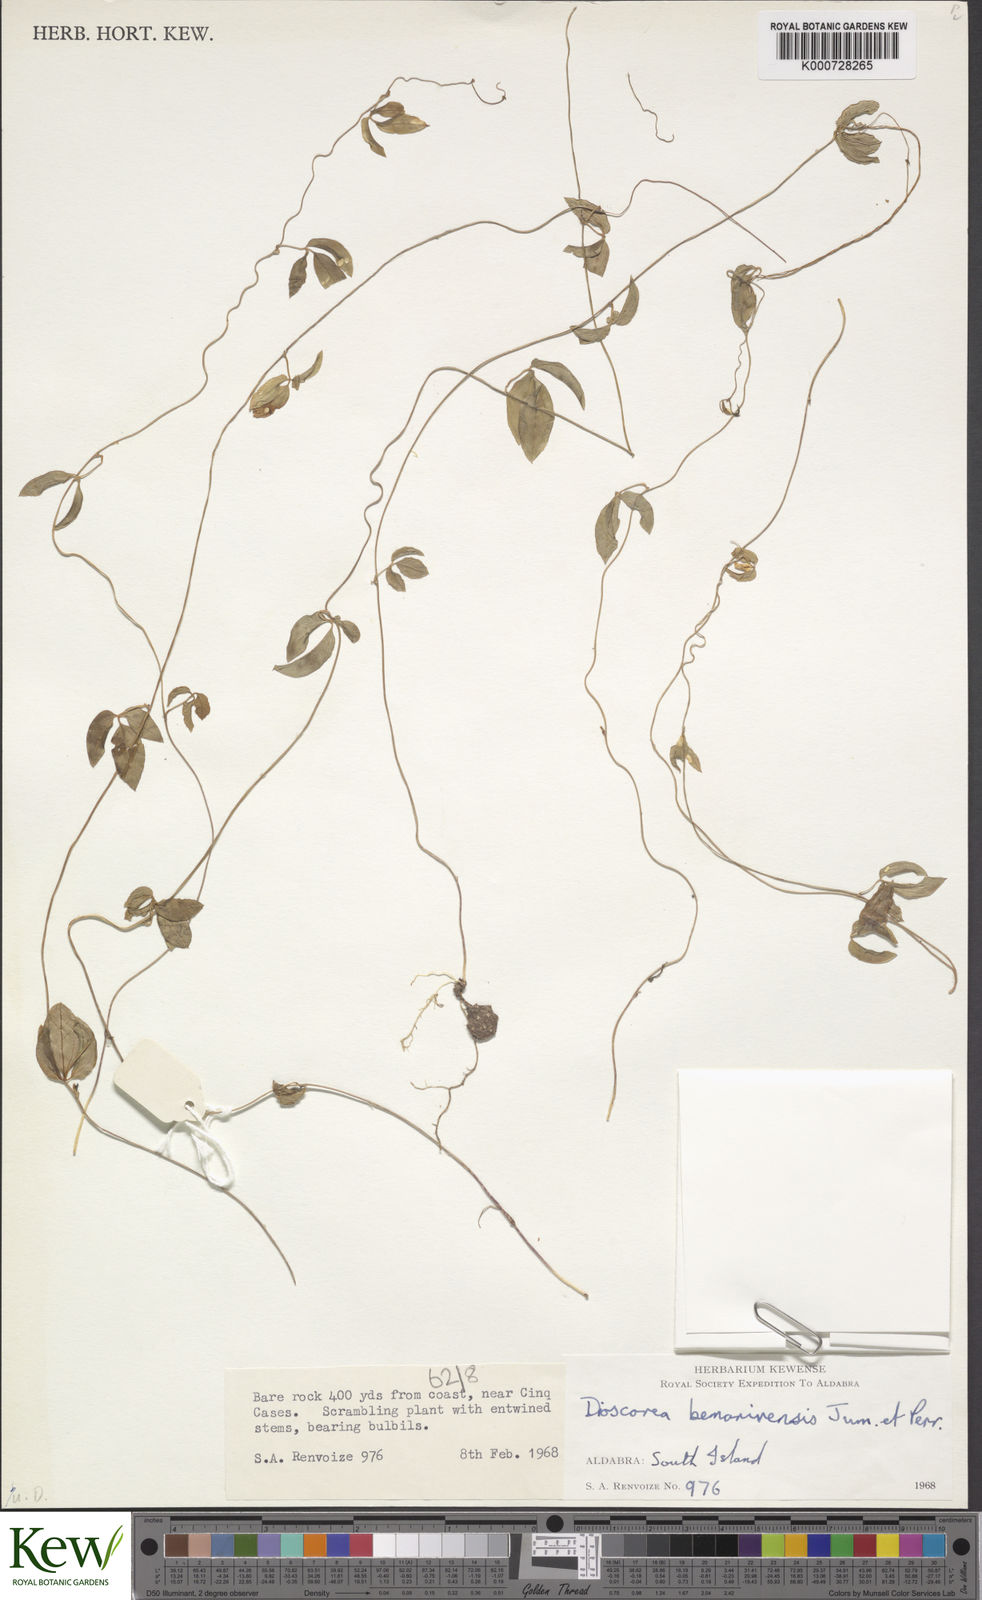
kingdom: Plantae
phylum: Tracheophyta
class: Liliopsida
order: Dioscoreales
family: Dioscoreaceae
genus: Dioscorea
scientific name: Dioscorea bemarivensis
